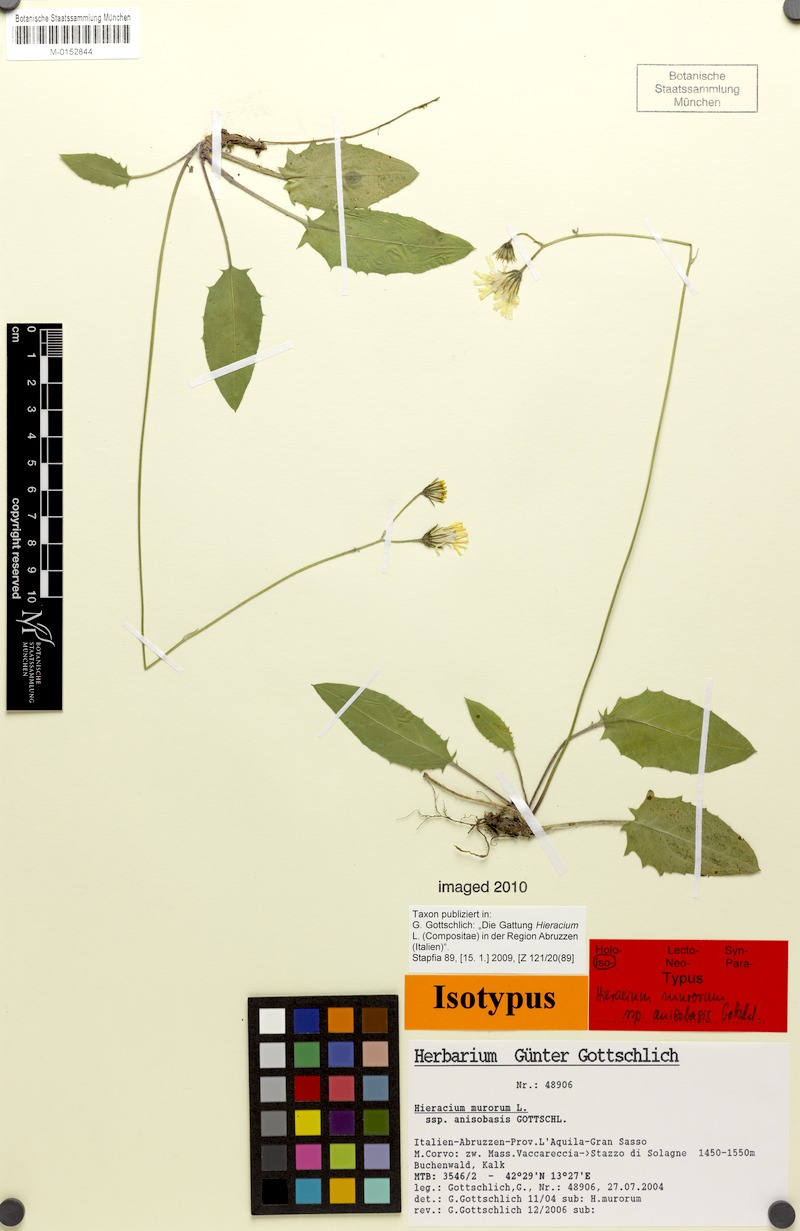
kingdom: Plantae
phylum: Tracheophyta
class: Magnoliopsida
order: Asterales
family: Asteraceae
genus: Hieracium
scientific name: Hieracium murorum
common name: Wall hawkweed
